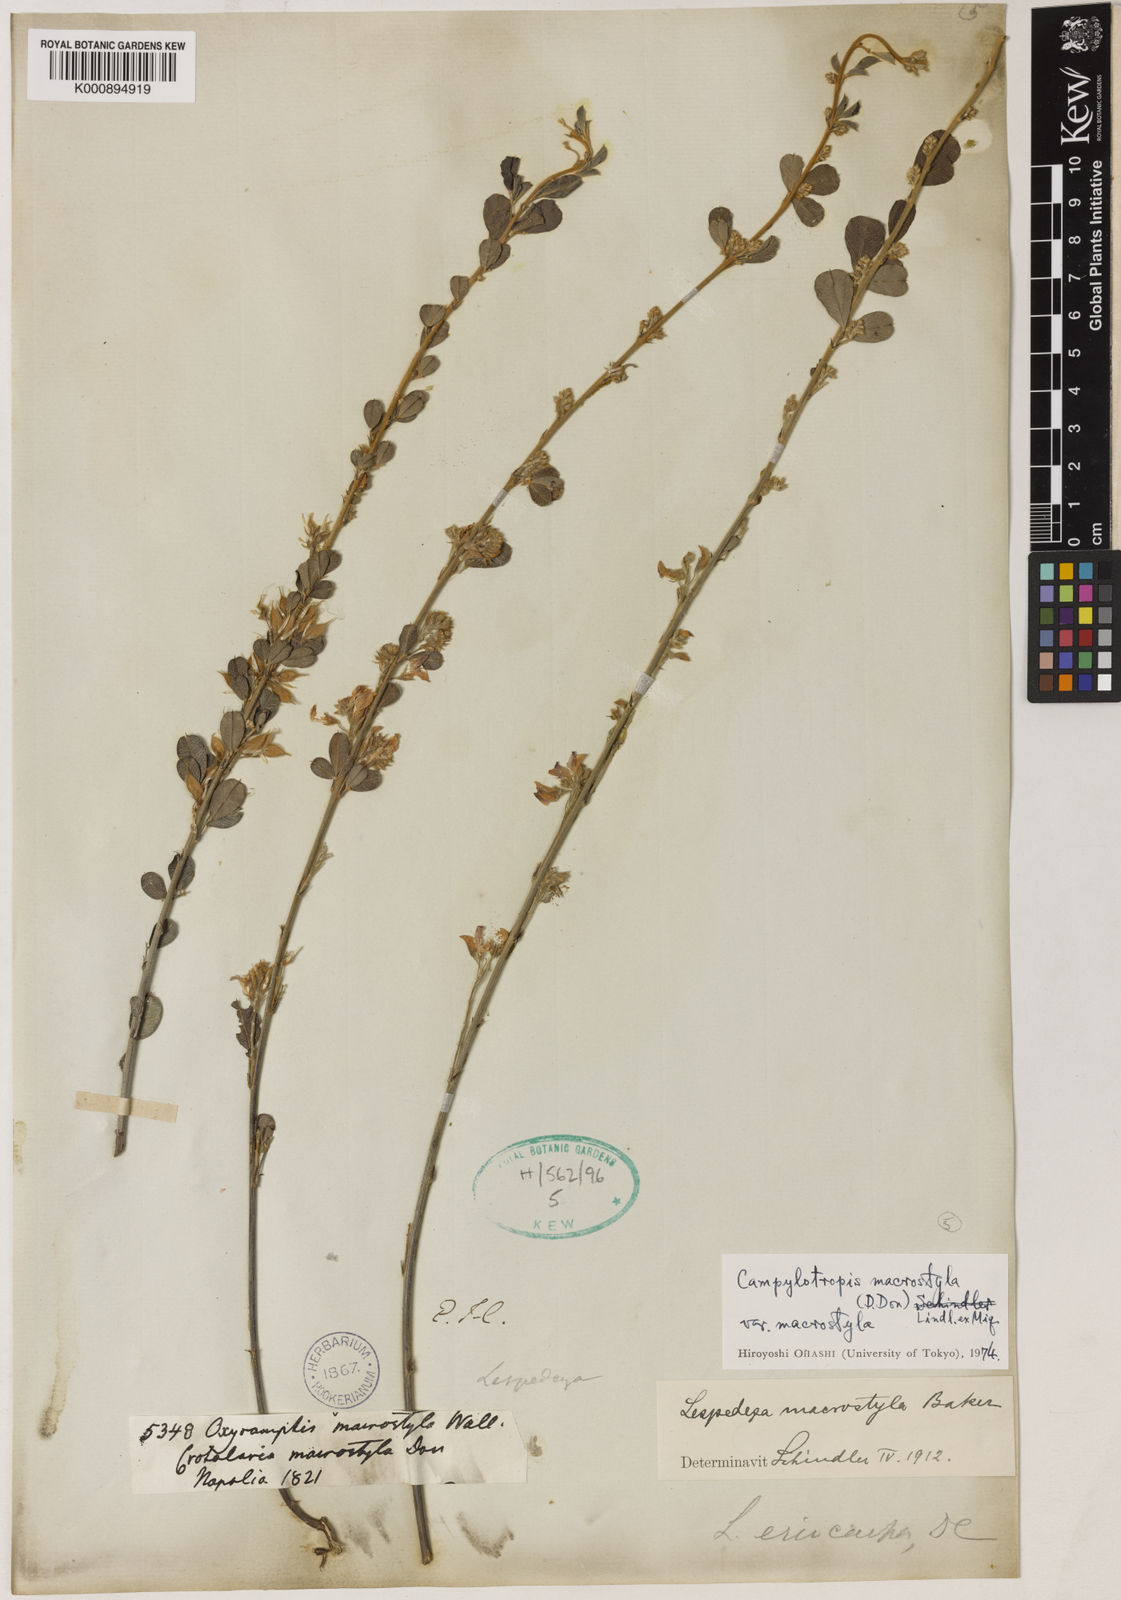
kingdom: Plantae
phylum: Tracheophyta
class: Magnoliopsida
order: Fabales
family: Fabaceae
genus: Campylotropis
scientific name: Campylotropis macrostyla
